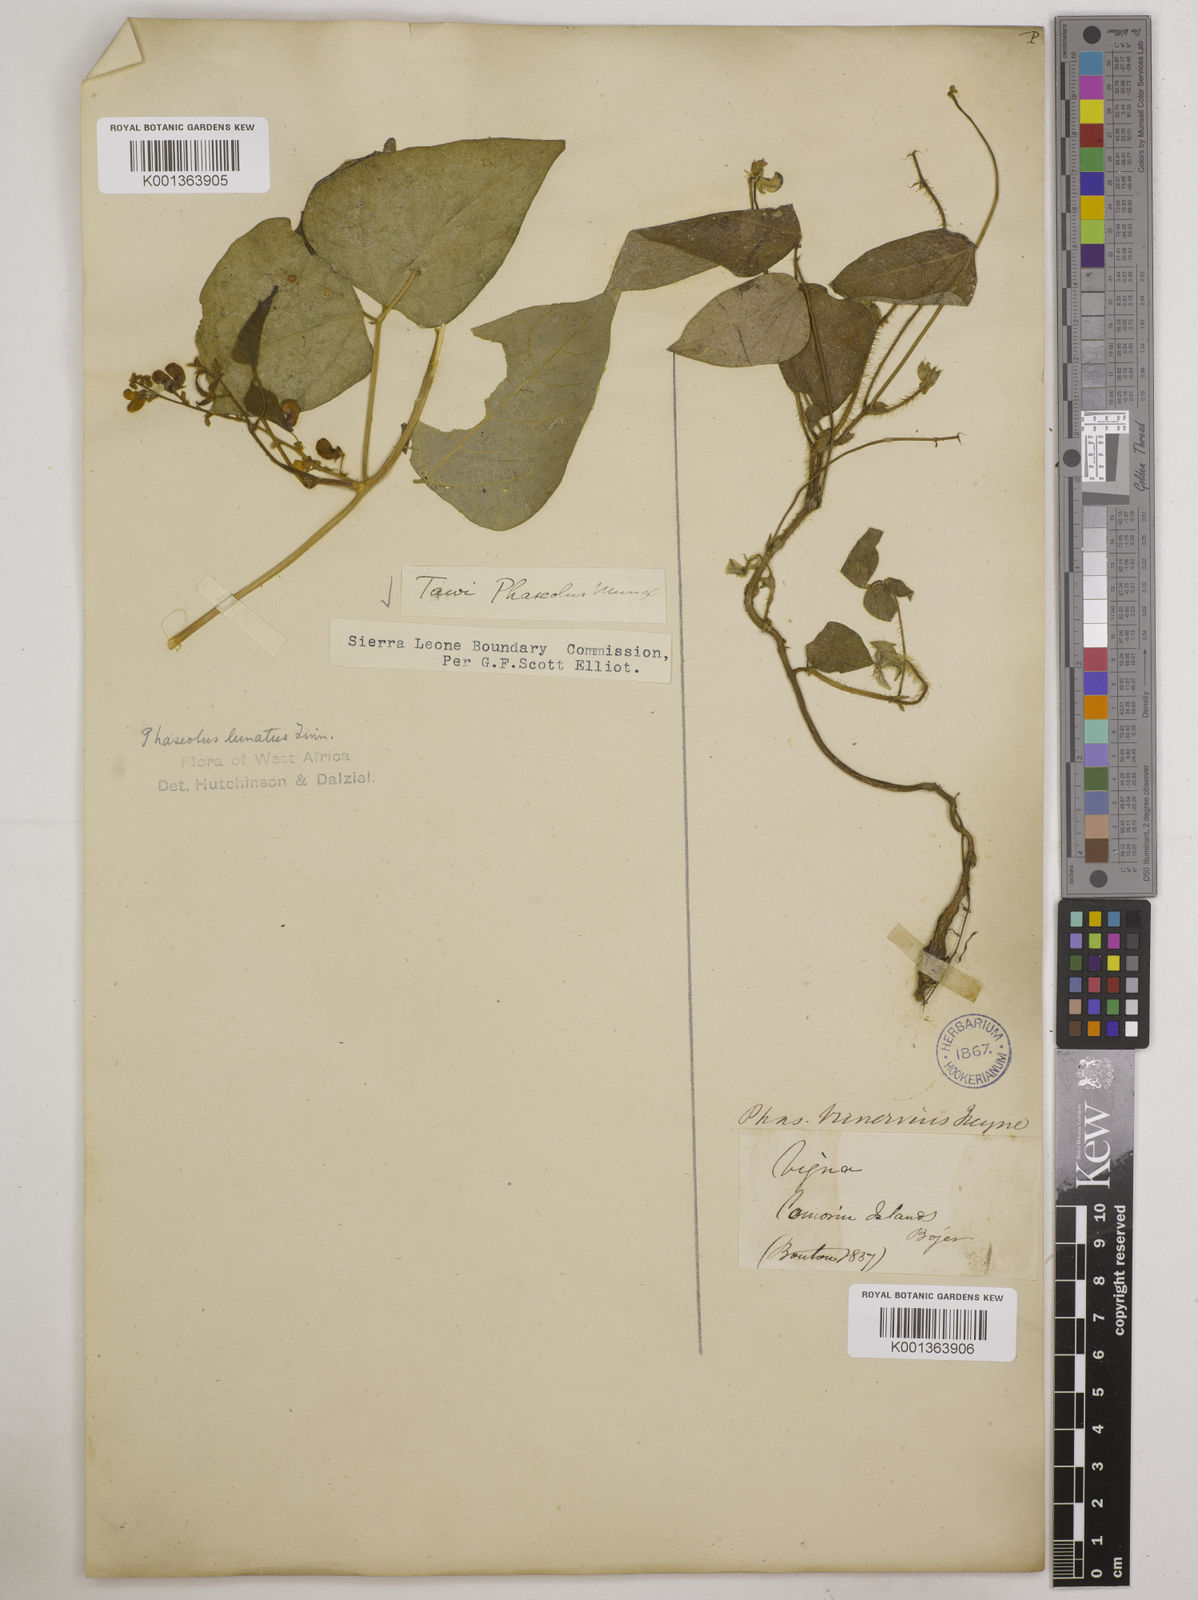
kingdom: Plantae
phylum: Tracheophyta
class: Magnoliopsida
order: Fabales
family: Fabaceae
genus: Phaseolus
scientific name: Phaseolus lunatus
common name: Sieva bean
